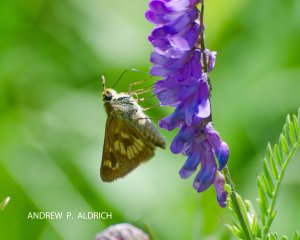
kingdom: Animalia
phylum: Arthropoda
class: Insecta
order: Lepidoptera
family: Hesperiidae
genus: Polites
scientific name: Polites
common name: Long Dash Skipper
